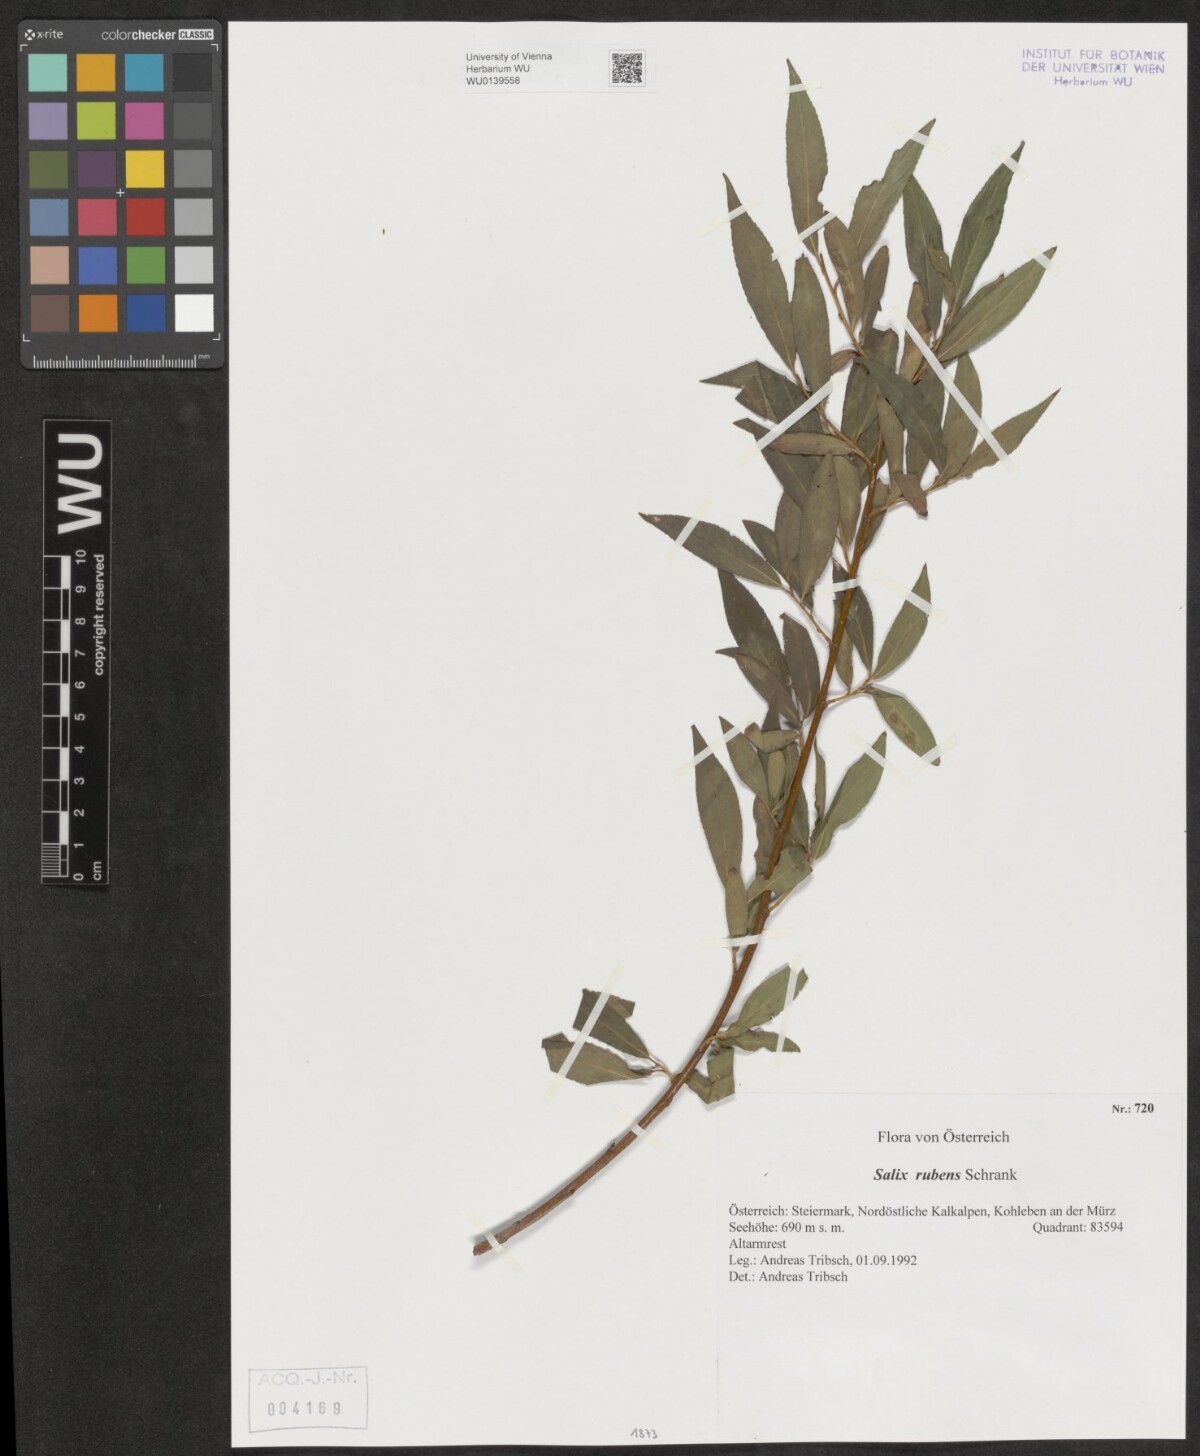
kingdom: Plantae
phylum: Tracheophyta
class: Magnoliopsida
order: Malpighiales
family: Salicaceae
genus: Salix
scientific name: Salix rubens
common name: Hybrid crack willow
